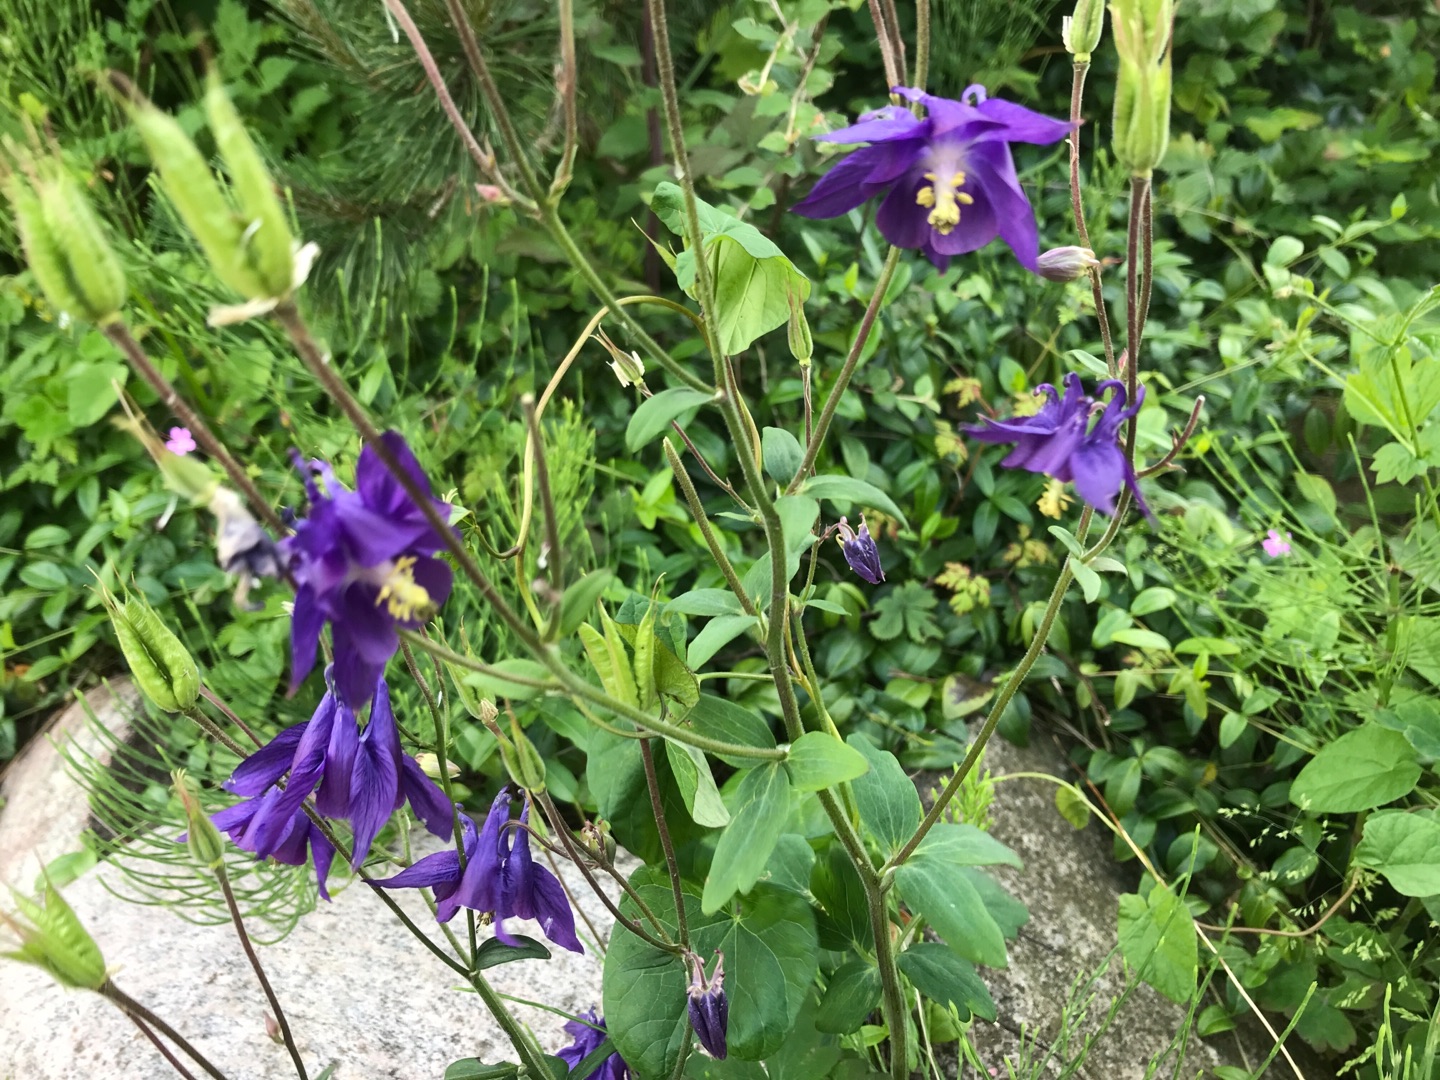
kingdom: Plantae
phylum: Tracheophyta
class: Magnoliopsida
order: Ranunculales
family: Ranunculaceae
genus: Aquilegia
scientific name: Aquilegia vulgaris
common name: Akeleje
